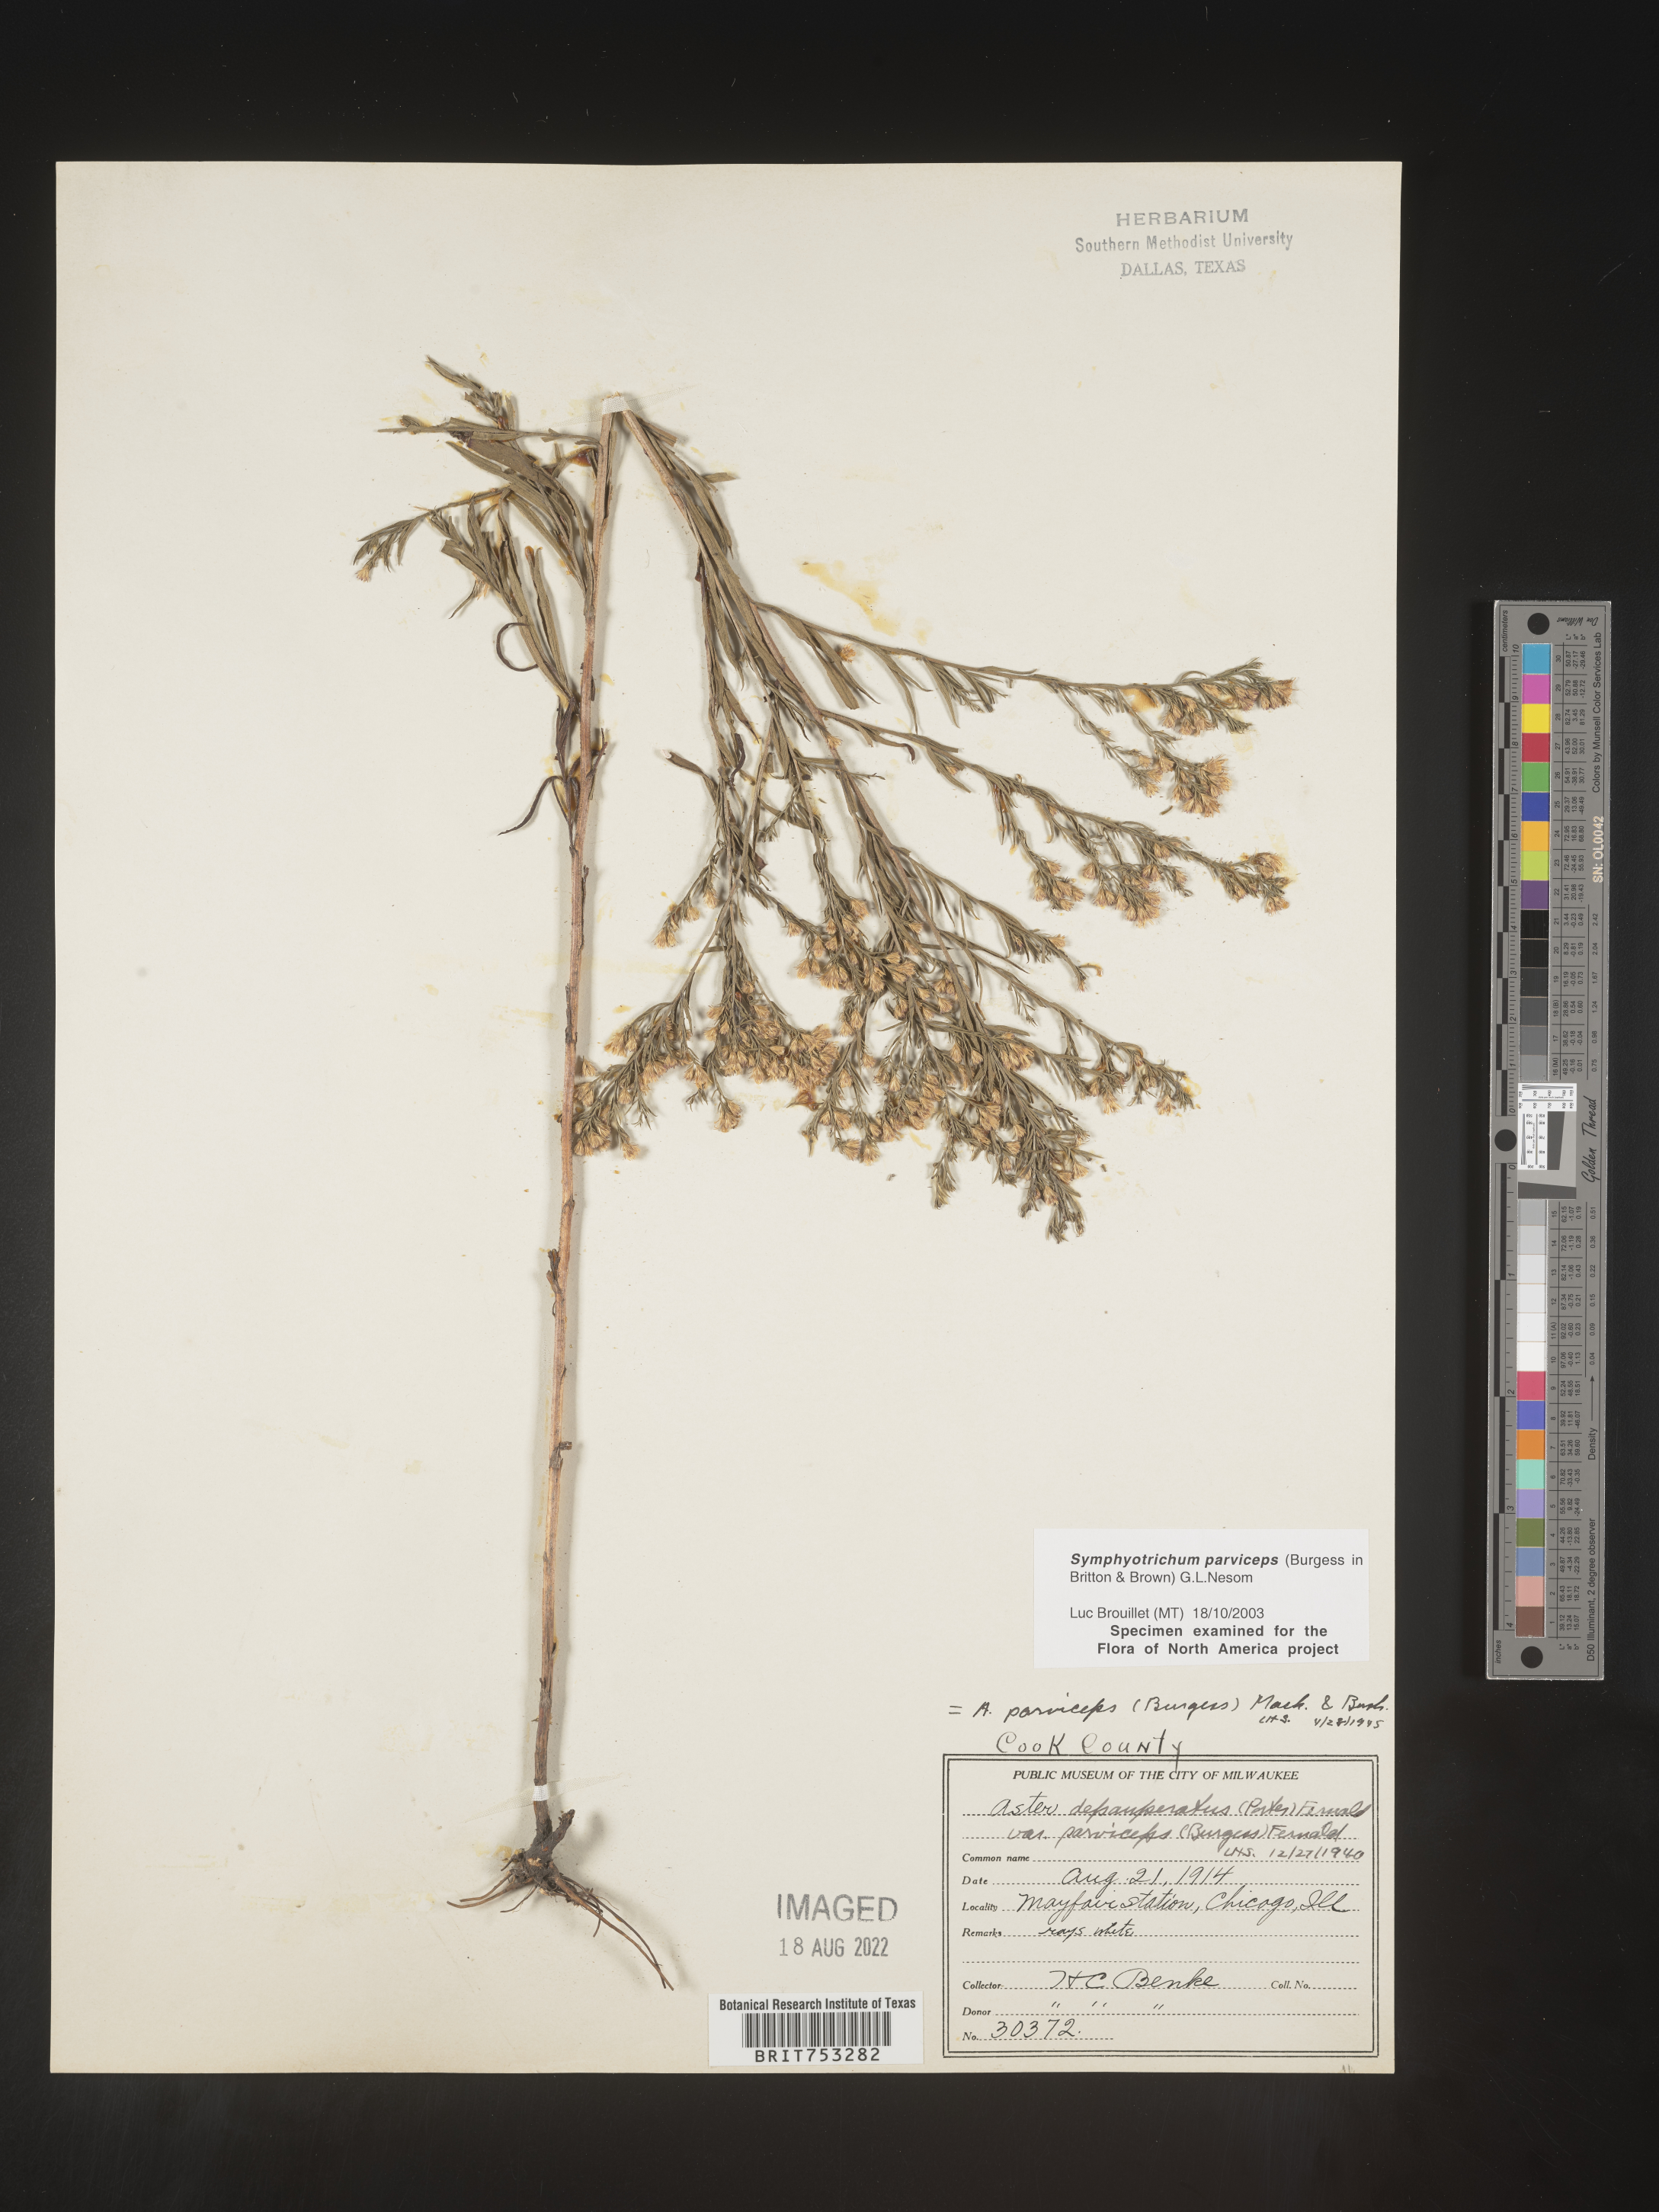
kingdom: Plantae
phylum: Tracheophyta
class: Magnoliopsida
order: Asterales
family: Asteraceae
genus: Symphyotrichum
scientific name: Symphyotrichum parviceps
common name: Small white aster
